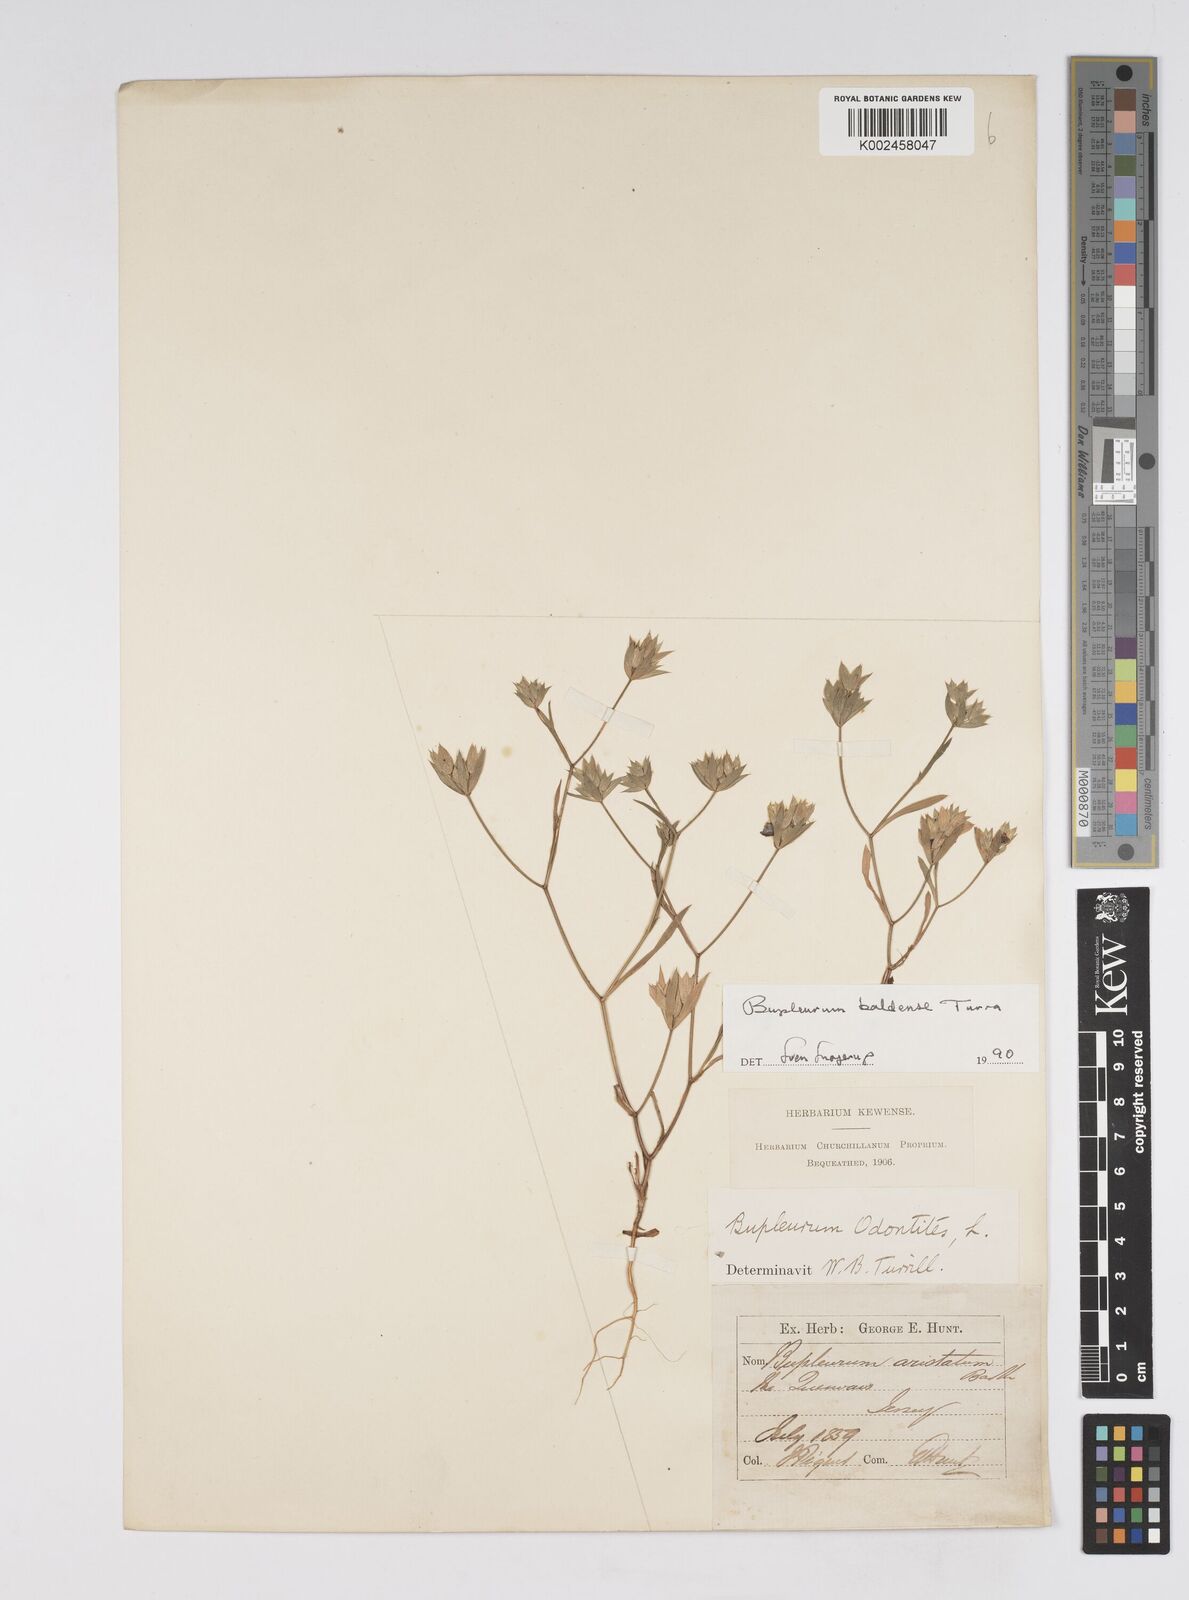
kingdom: Plantae
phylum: Tracheophyta
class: Magnoliopsida
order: Apiales
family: Apiaceae
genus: Bupleurum
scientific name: Bupleurum baldense
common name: Small hare's-ear
